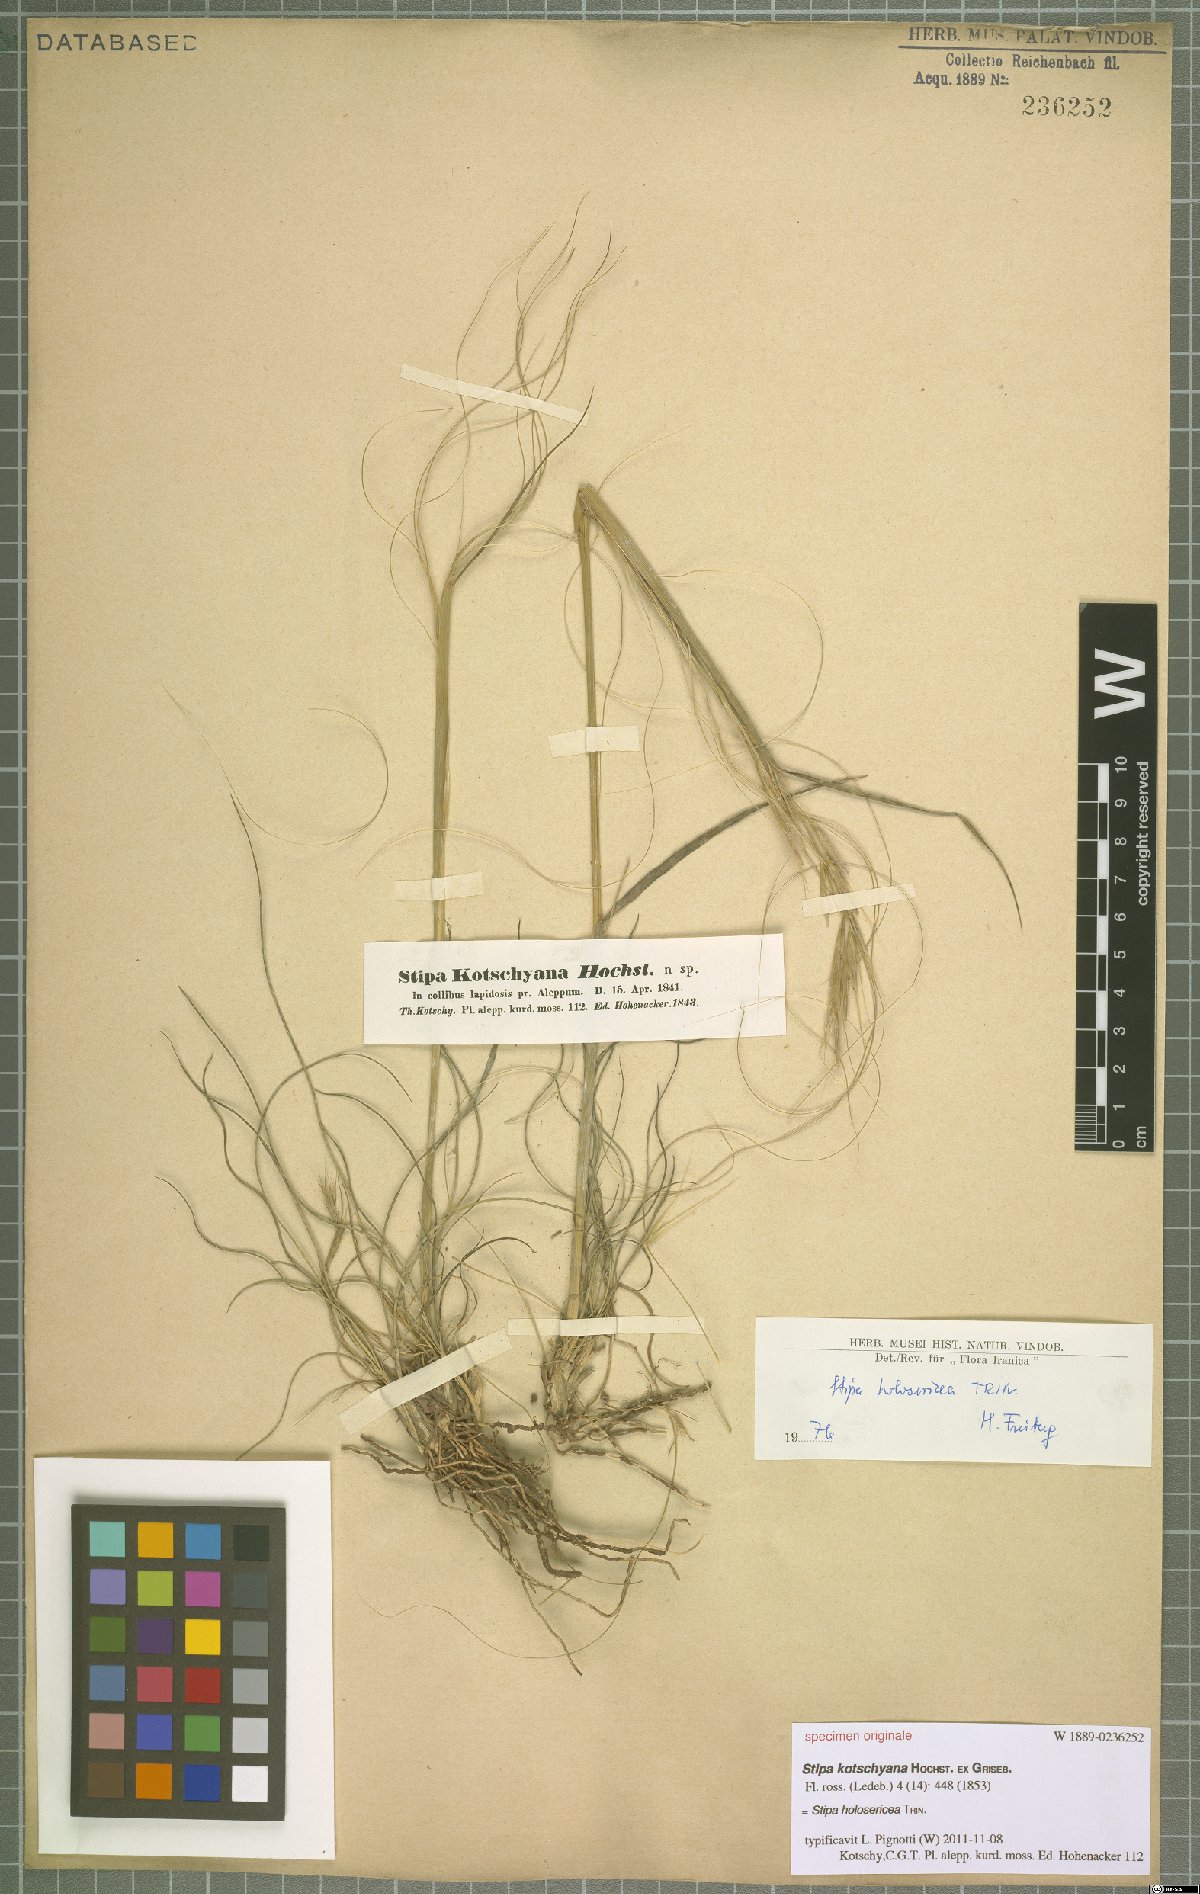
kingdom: Plantae
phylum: Tracheophyta
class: Liliopsida
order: Poales
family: Poaceae
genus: Stipa
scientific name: Stipa holosericea
